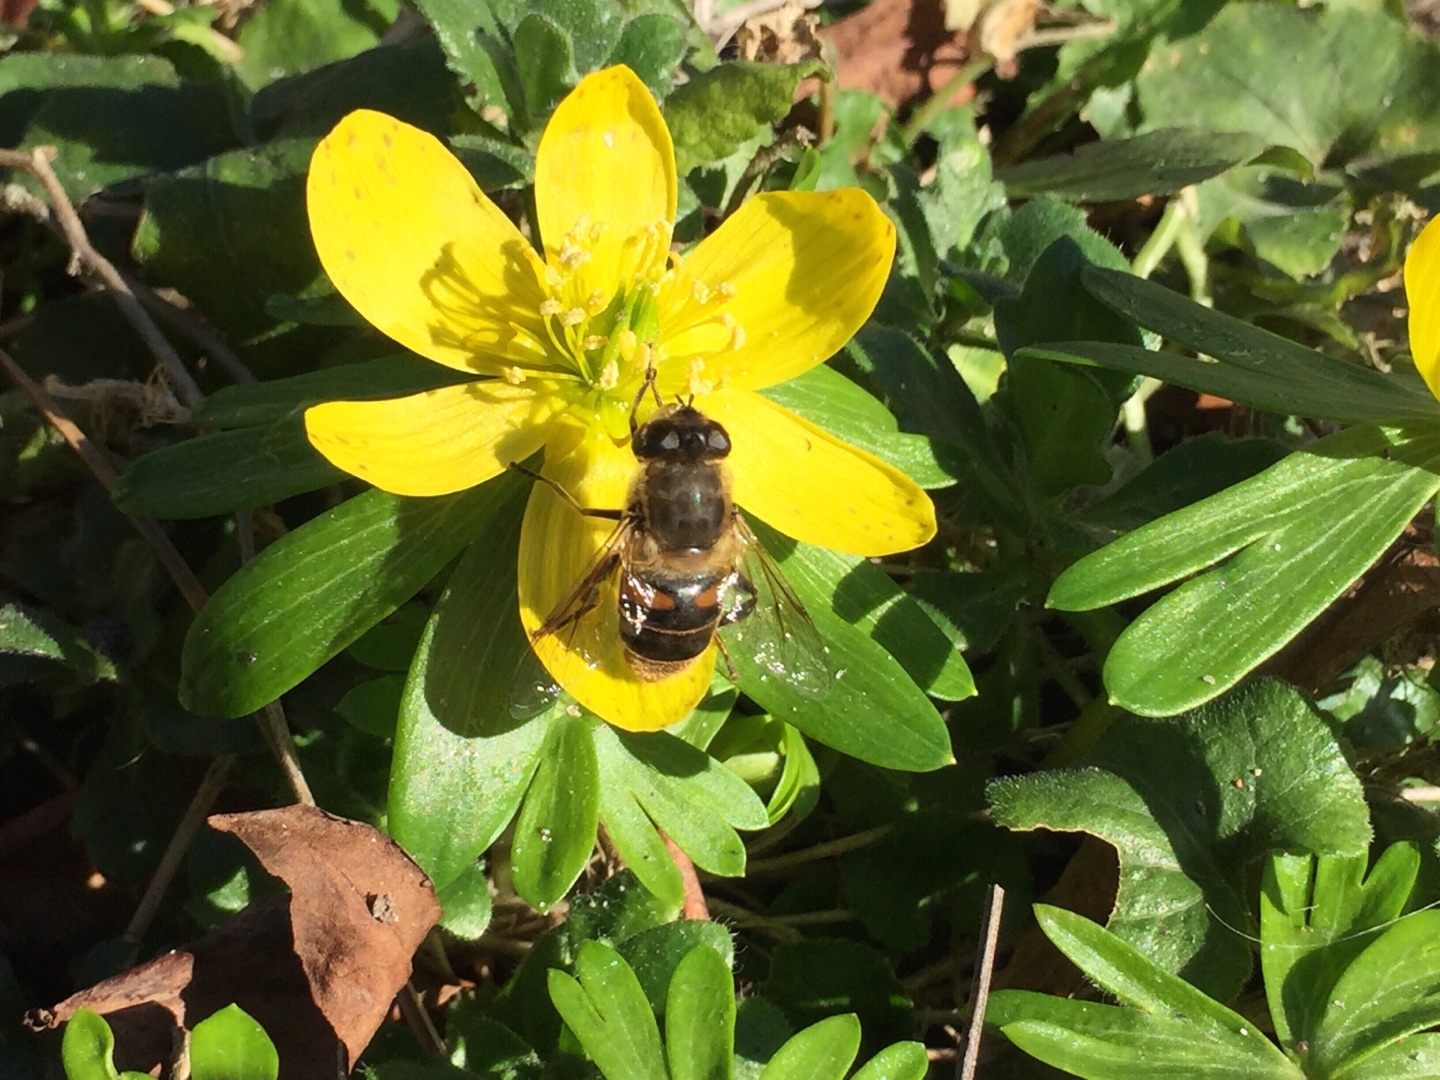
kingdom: Animalia
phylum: Arthropoda
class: Insecta
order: Diptera
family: Syrphidae
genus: Eristalis
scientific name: Eristalis tenax
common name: Droneflue
